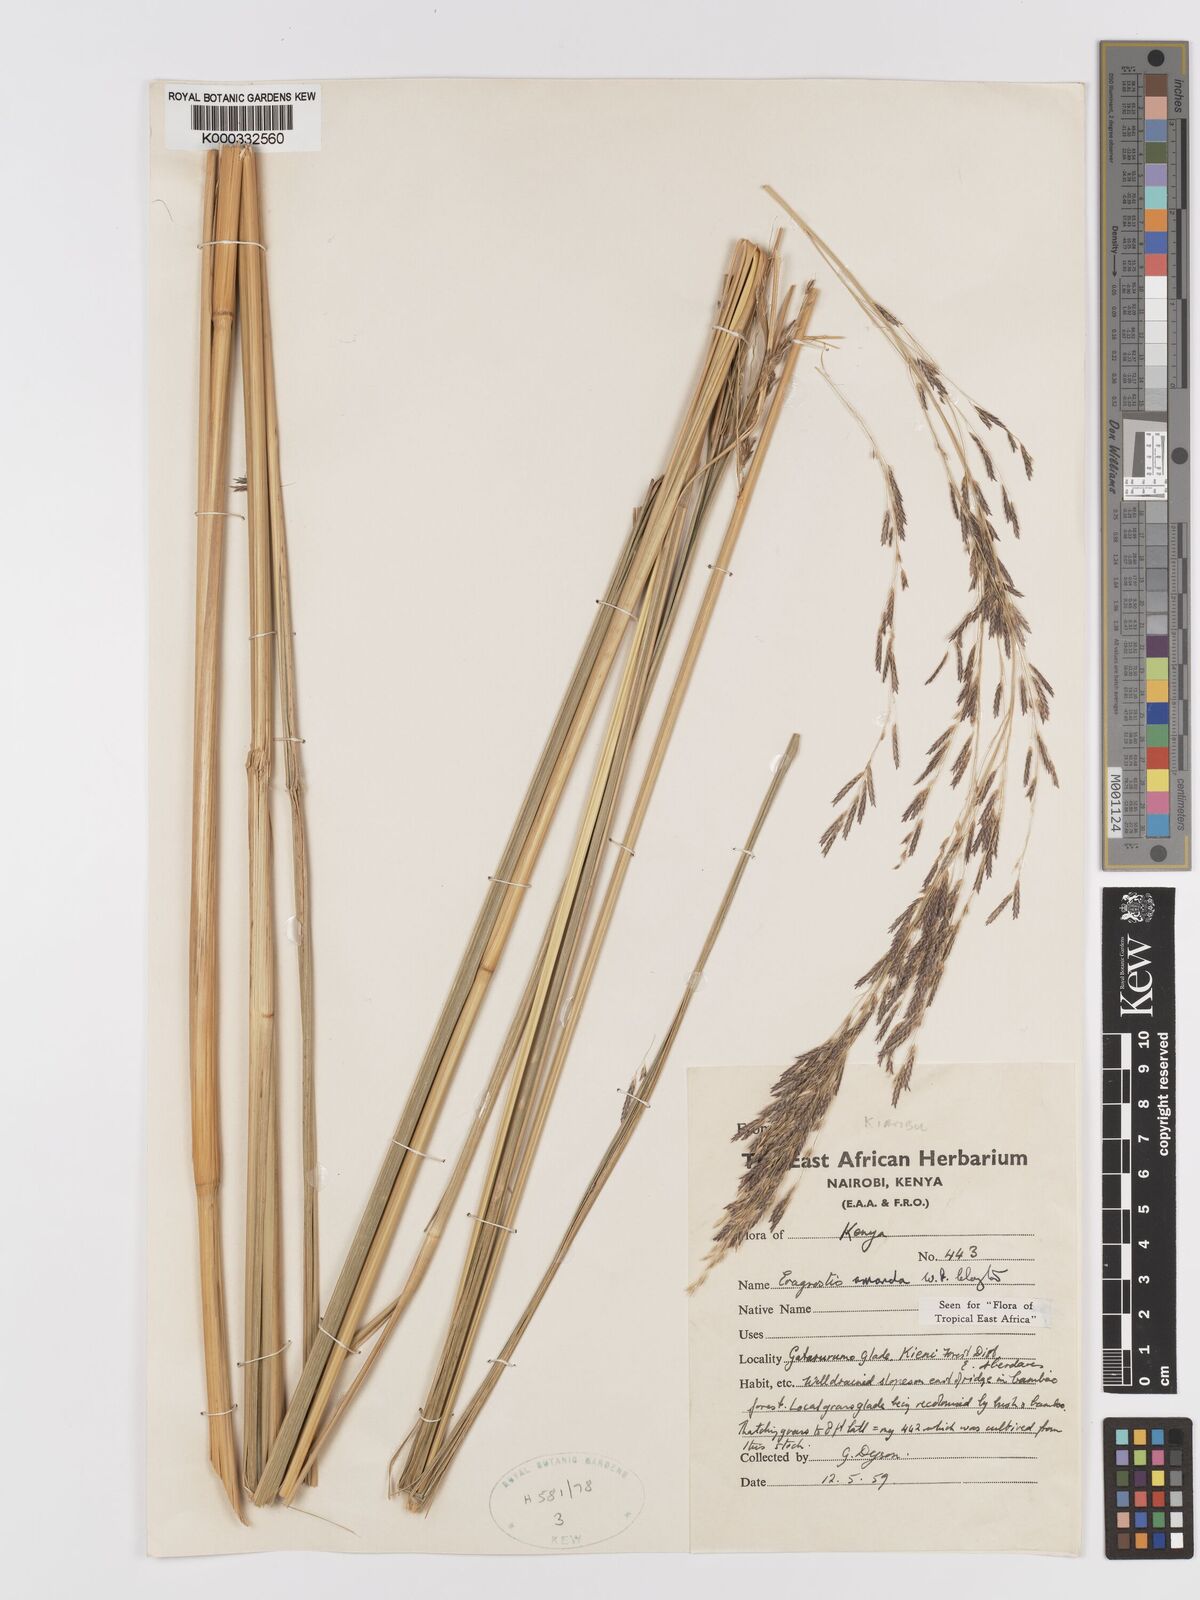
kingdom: Plantae
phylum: Tracheophyta
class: Liliopsida
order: Poales
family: Poaceae
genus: Eragrostis
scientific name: Eragrostis amanda
